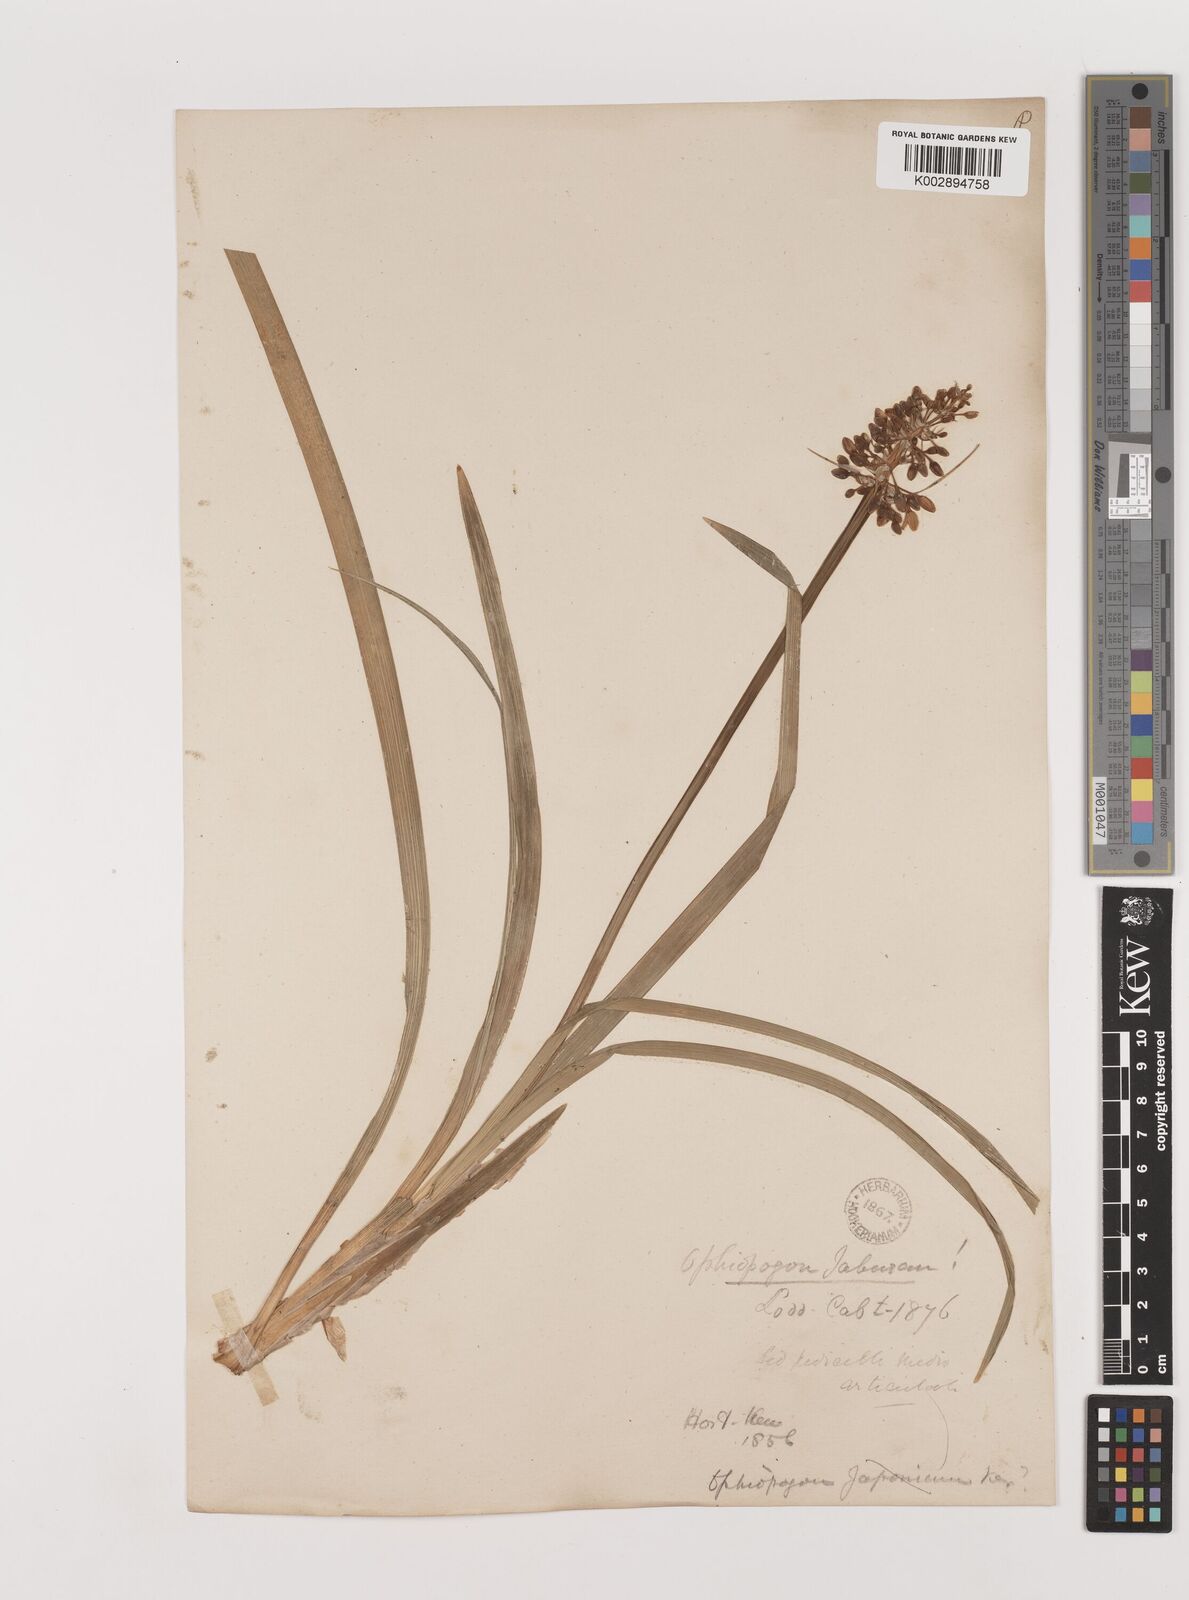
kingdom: Plantae
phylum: Tracheophyta
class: Liliopsida
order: Asparagales
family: Asparagaceae
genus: Ophiopogon
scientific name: Ophiopogon jaburan
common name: Lilyturf
